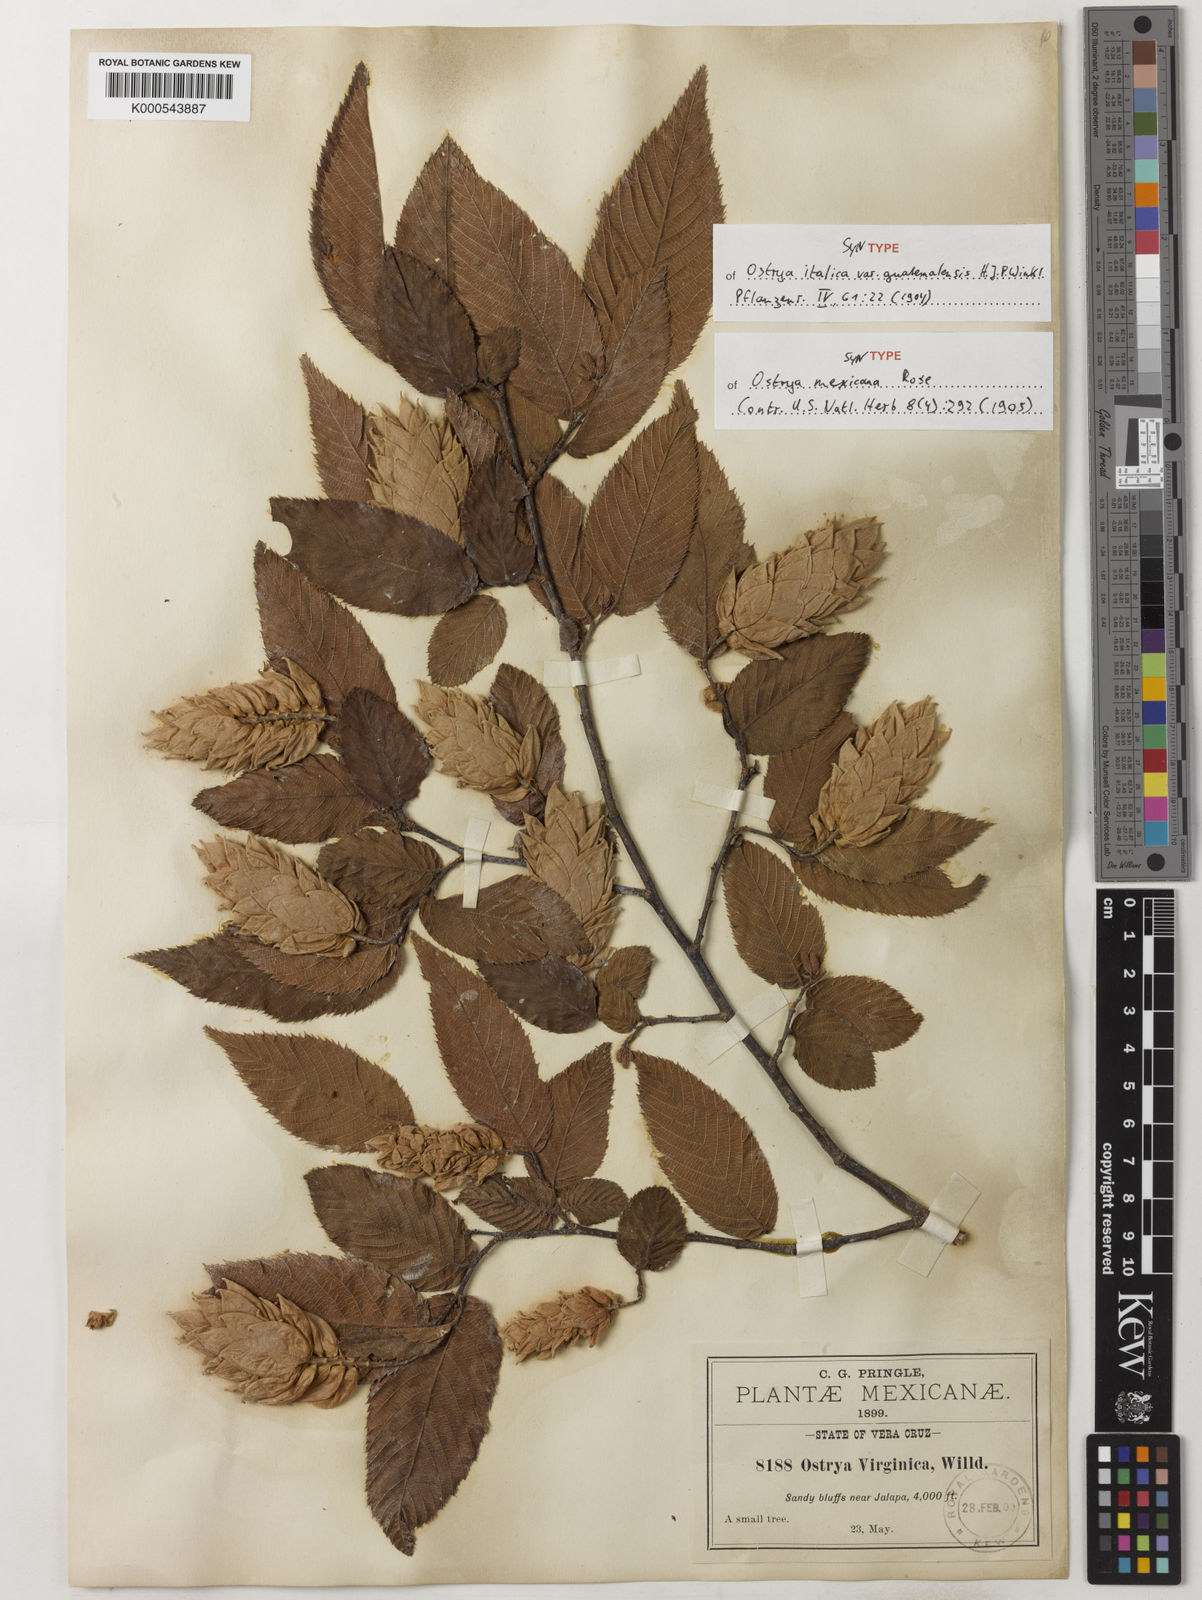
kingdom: Plantae
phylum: Tracheophyta
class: Magnoliopsida
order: Fagales
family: Betulaceae
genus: Ostrya
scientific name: Ostrya virginiana
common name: Ironwood
